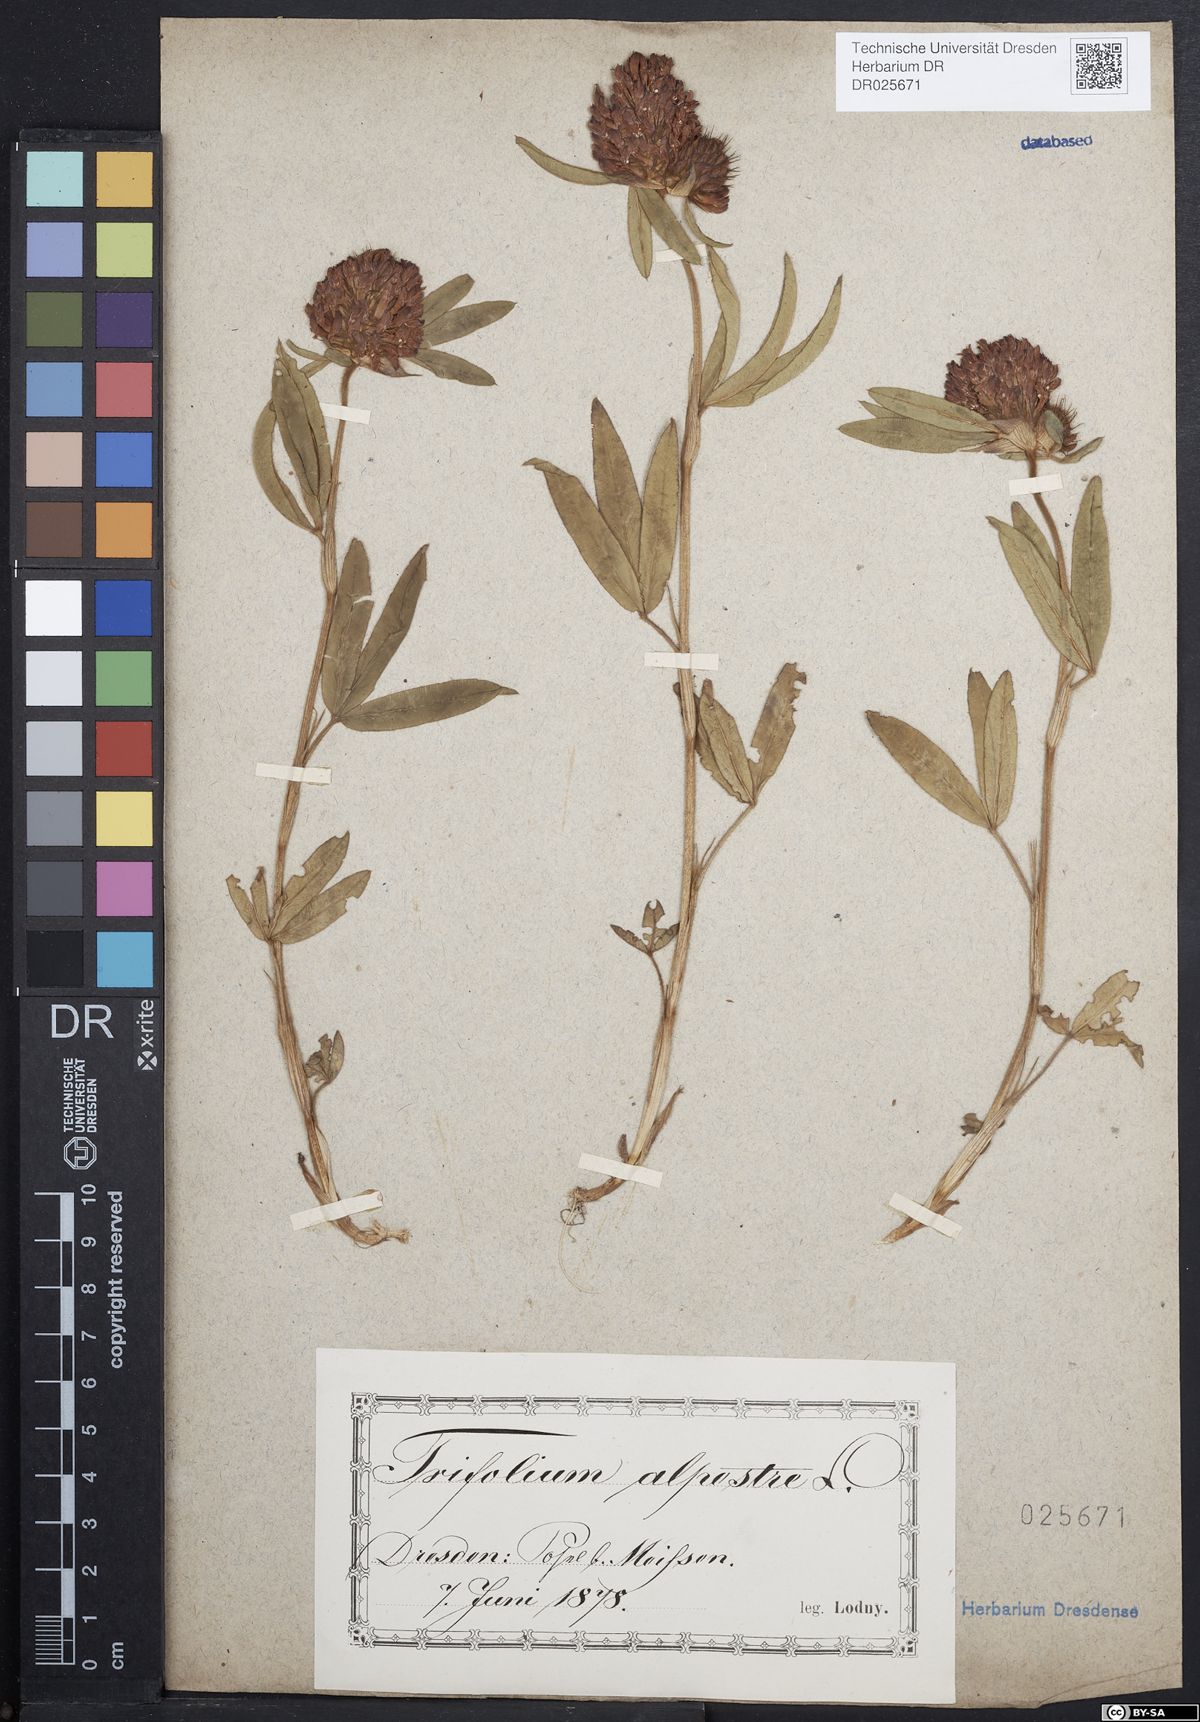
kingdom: Plantae
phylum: Tracheophyta
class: Magnoliopsida
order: Fabales
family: Fabaceae
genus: Trifolium
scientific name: Trifolium alpestre
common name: Owl-head clover
